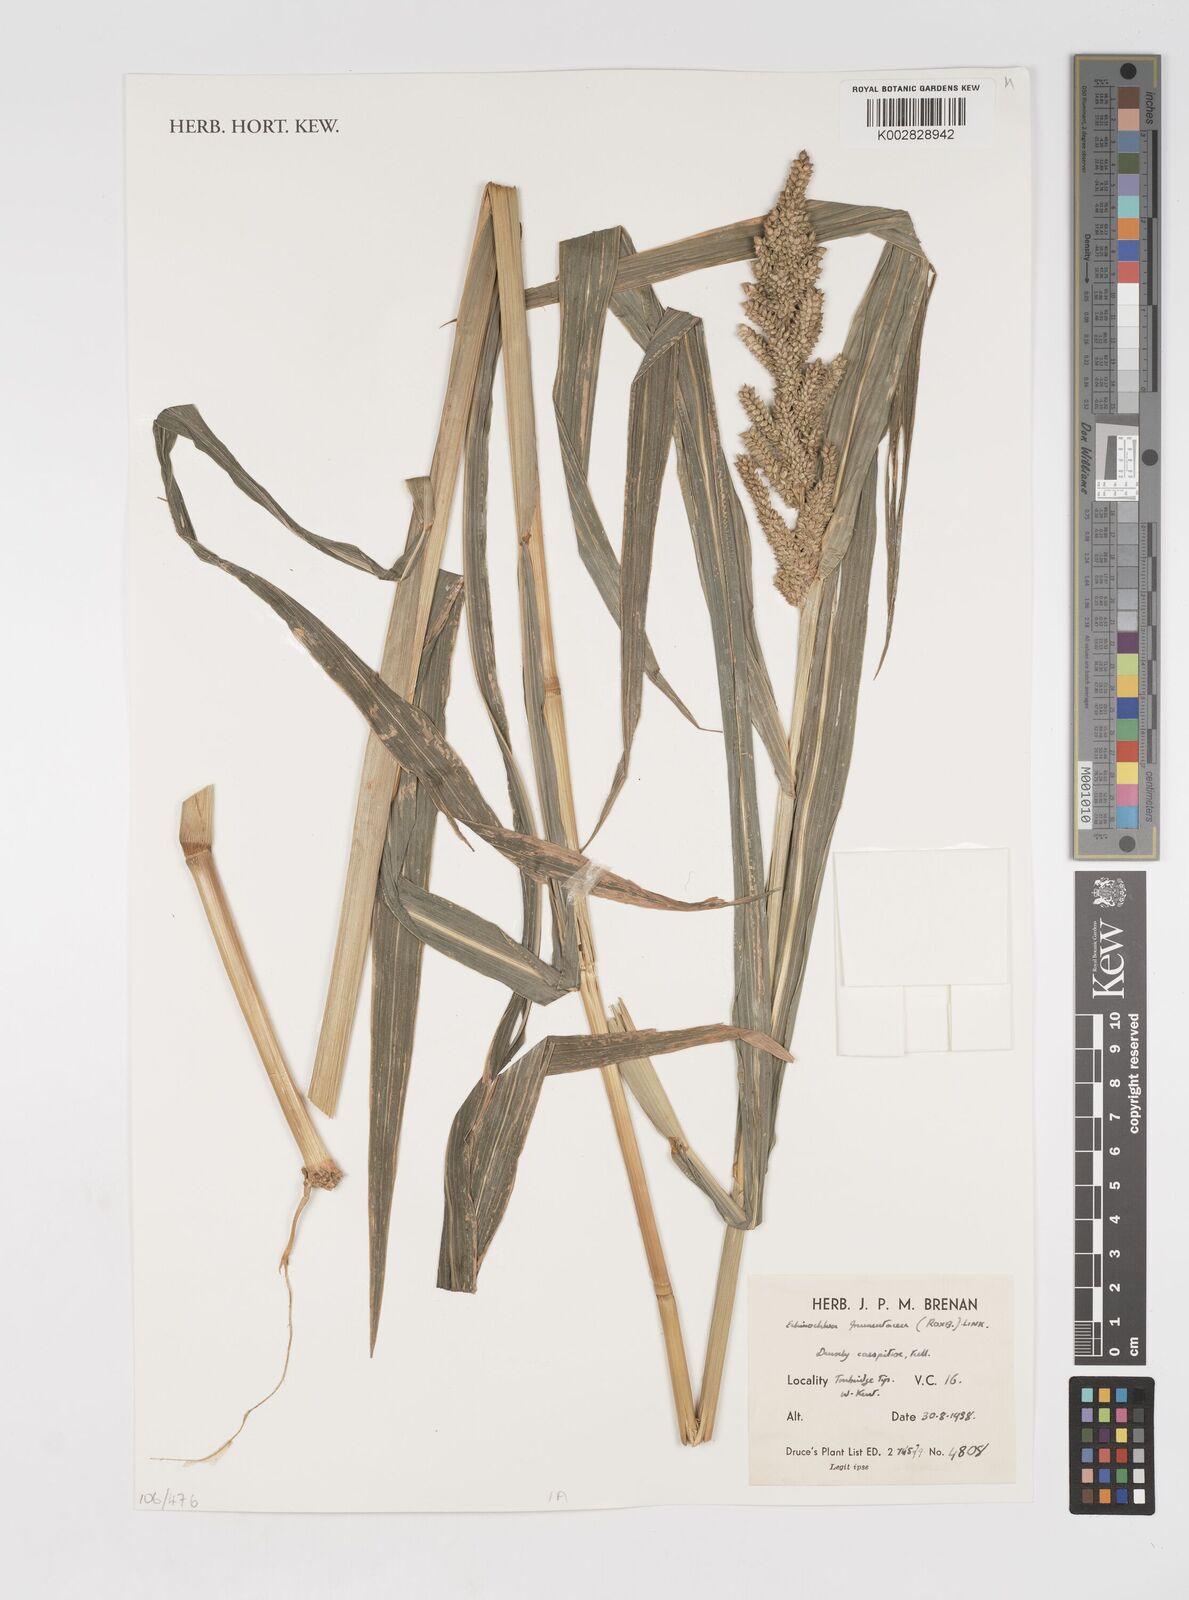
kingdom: Plantae
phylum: Tracheophyta
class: Liliopsida
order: Poales
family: Poaceae
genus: Echinochloa
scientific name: Echinochloa frumentacea
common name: Billion-dollar grass
